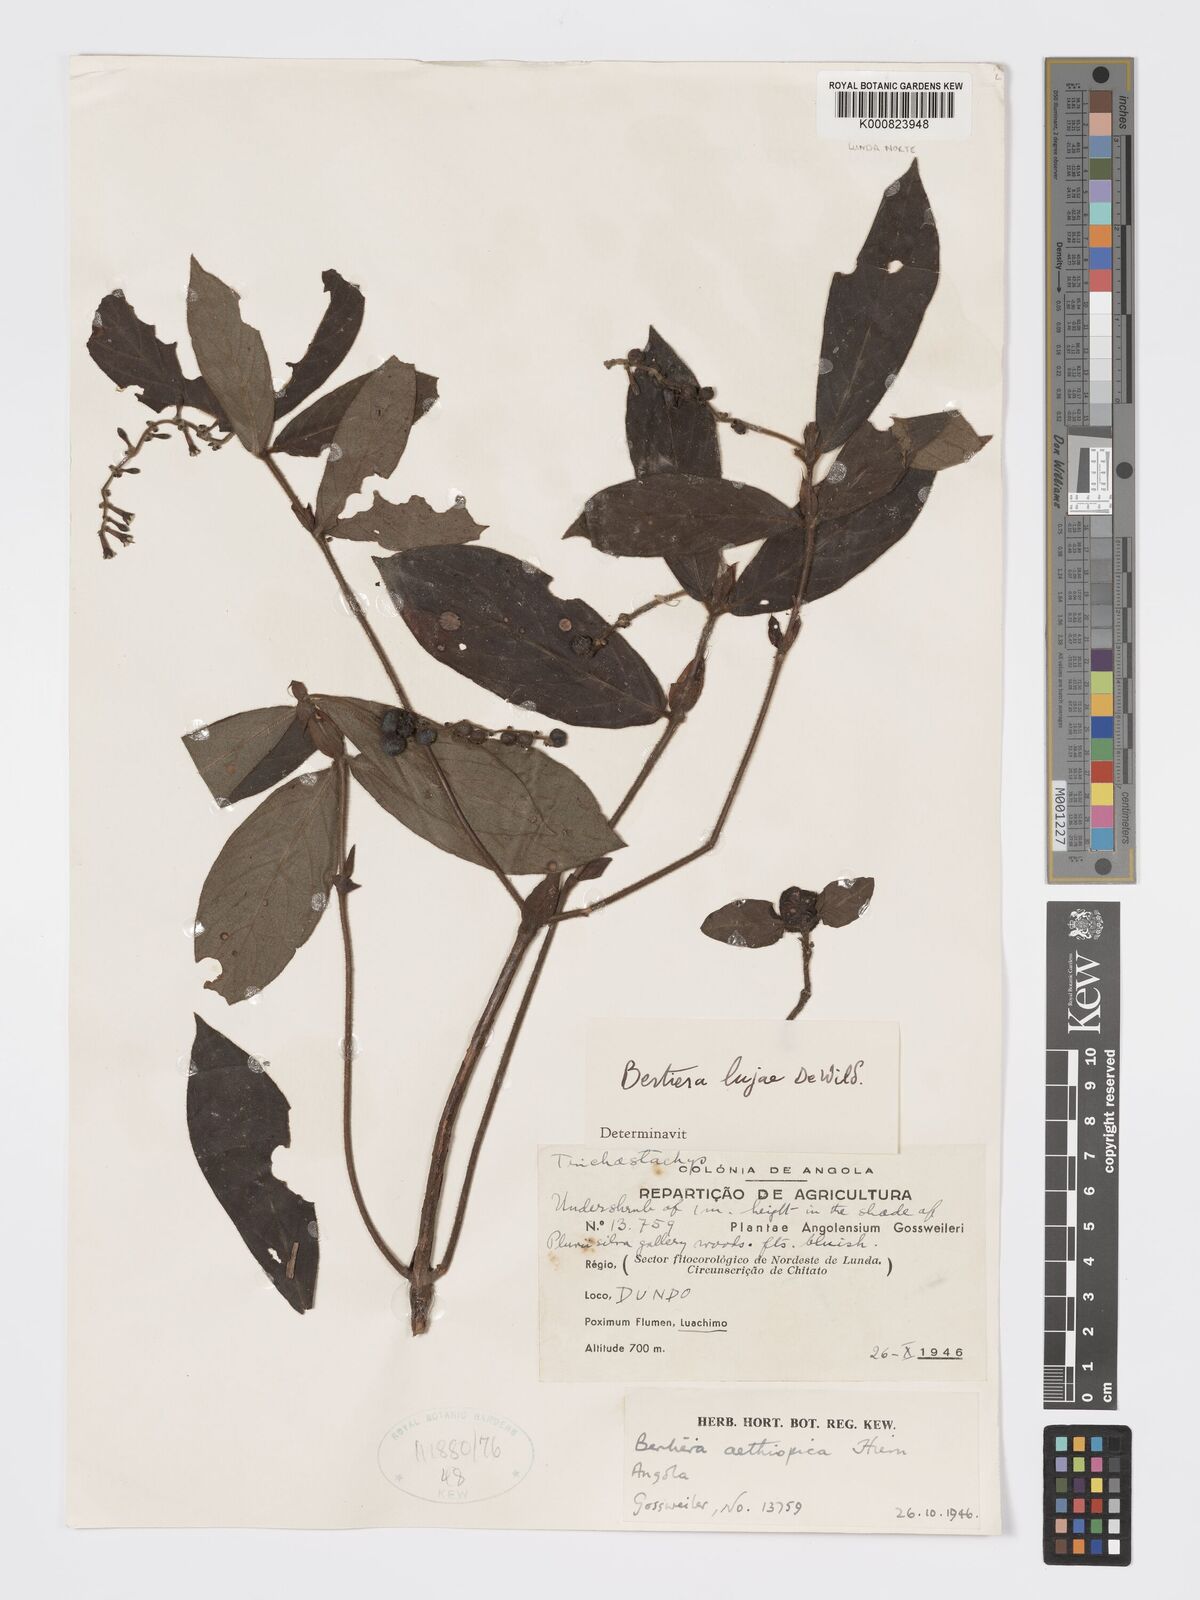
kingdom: Plantae
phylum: Tracheophyta
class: Magnoliopsida
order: Gentianales
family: Rubiaceae
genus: Bertiera
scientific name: Bertiera lujae
